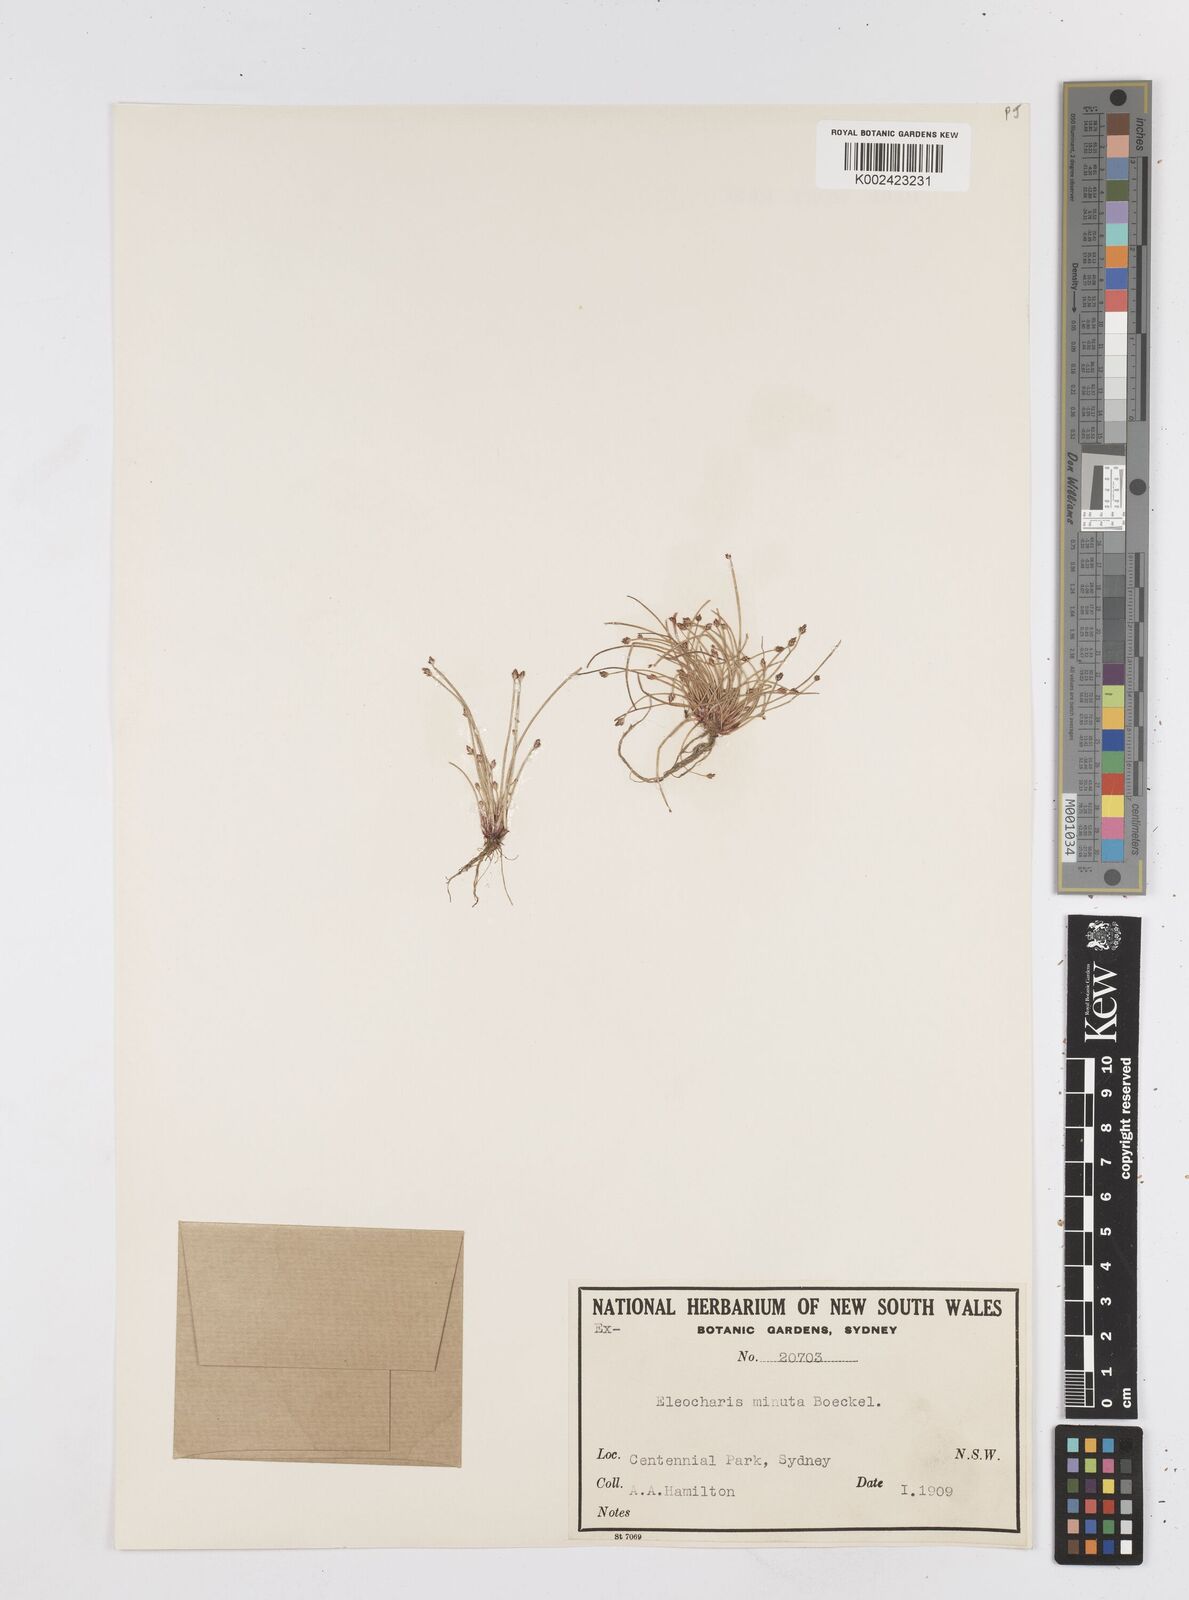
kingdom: Plantae
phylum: Tracheophyta
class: Liliopsida
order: Poales
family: Cyperaceae
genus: Eleocharis
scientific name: Eleocharis minuta
